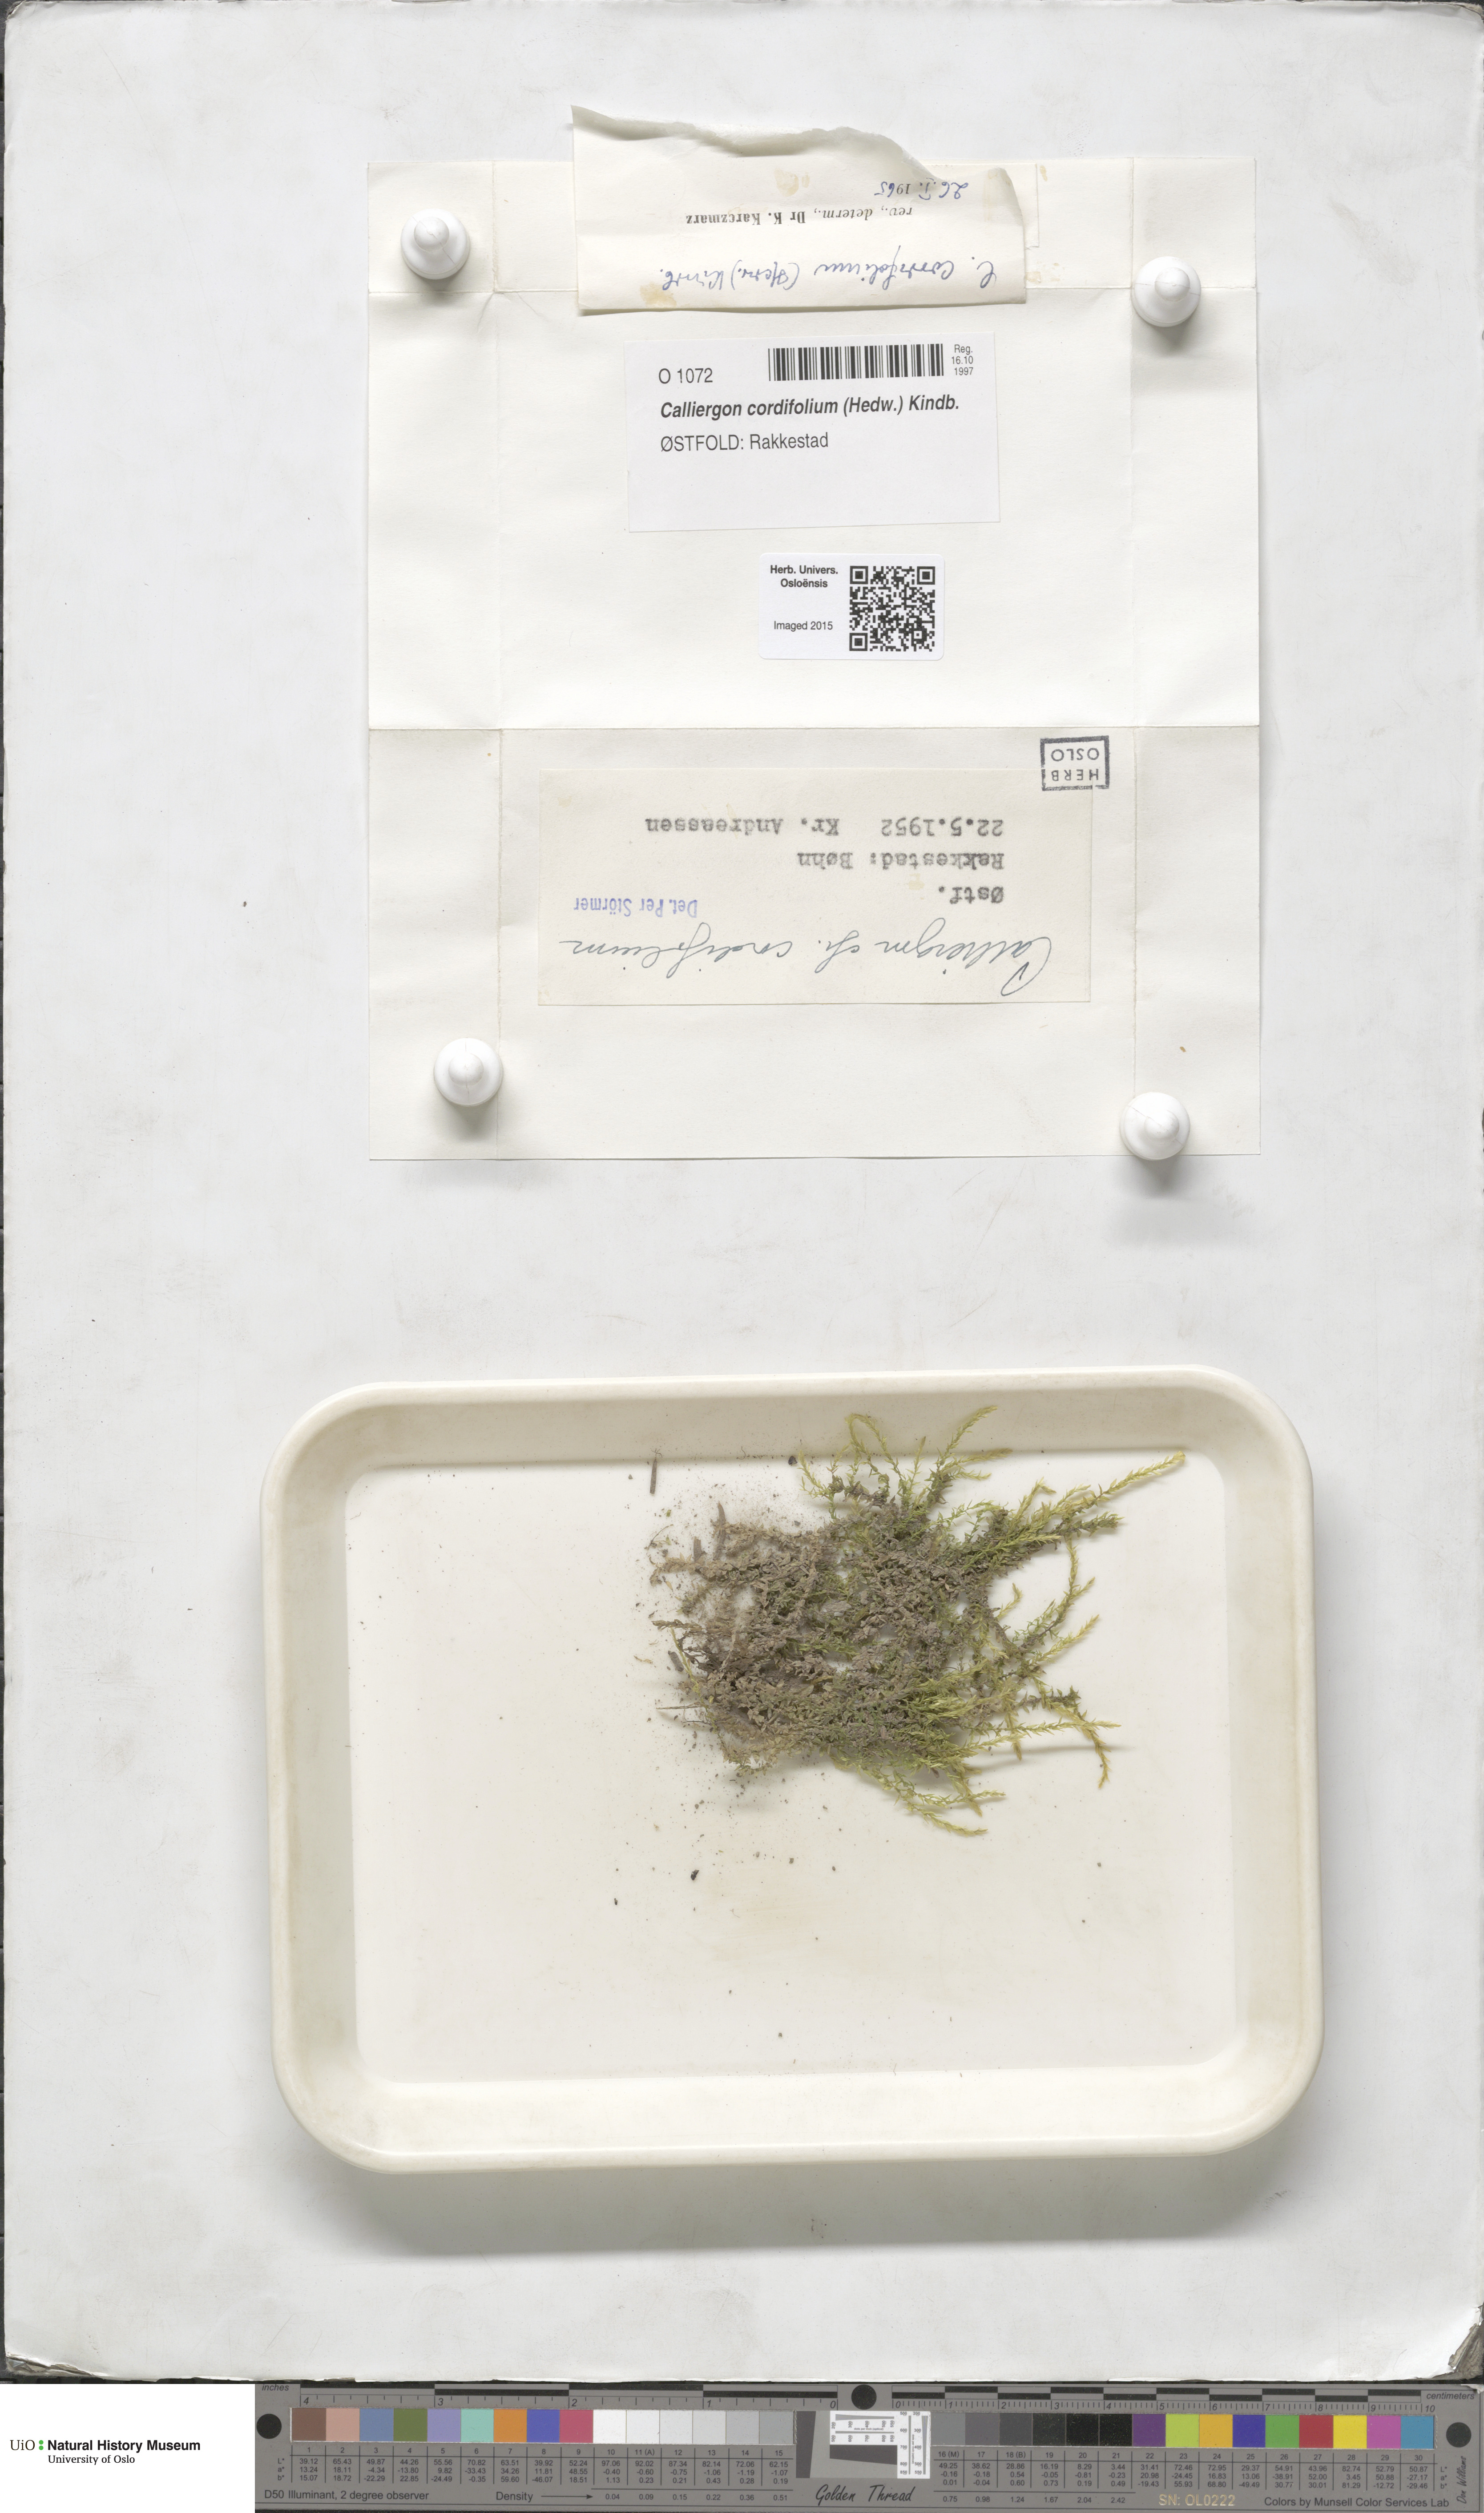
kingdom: Plantae
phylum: Bryophyta
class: Bryopsida
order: Hypnales
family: Calliergonaceae
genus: Calliergon
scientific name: Calliergon cordifolium
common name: Heart-leaved spear moss
